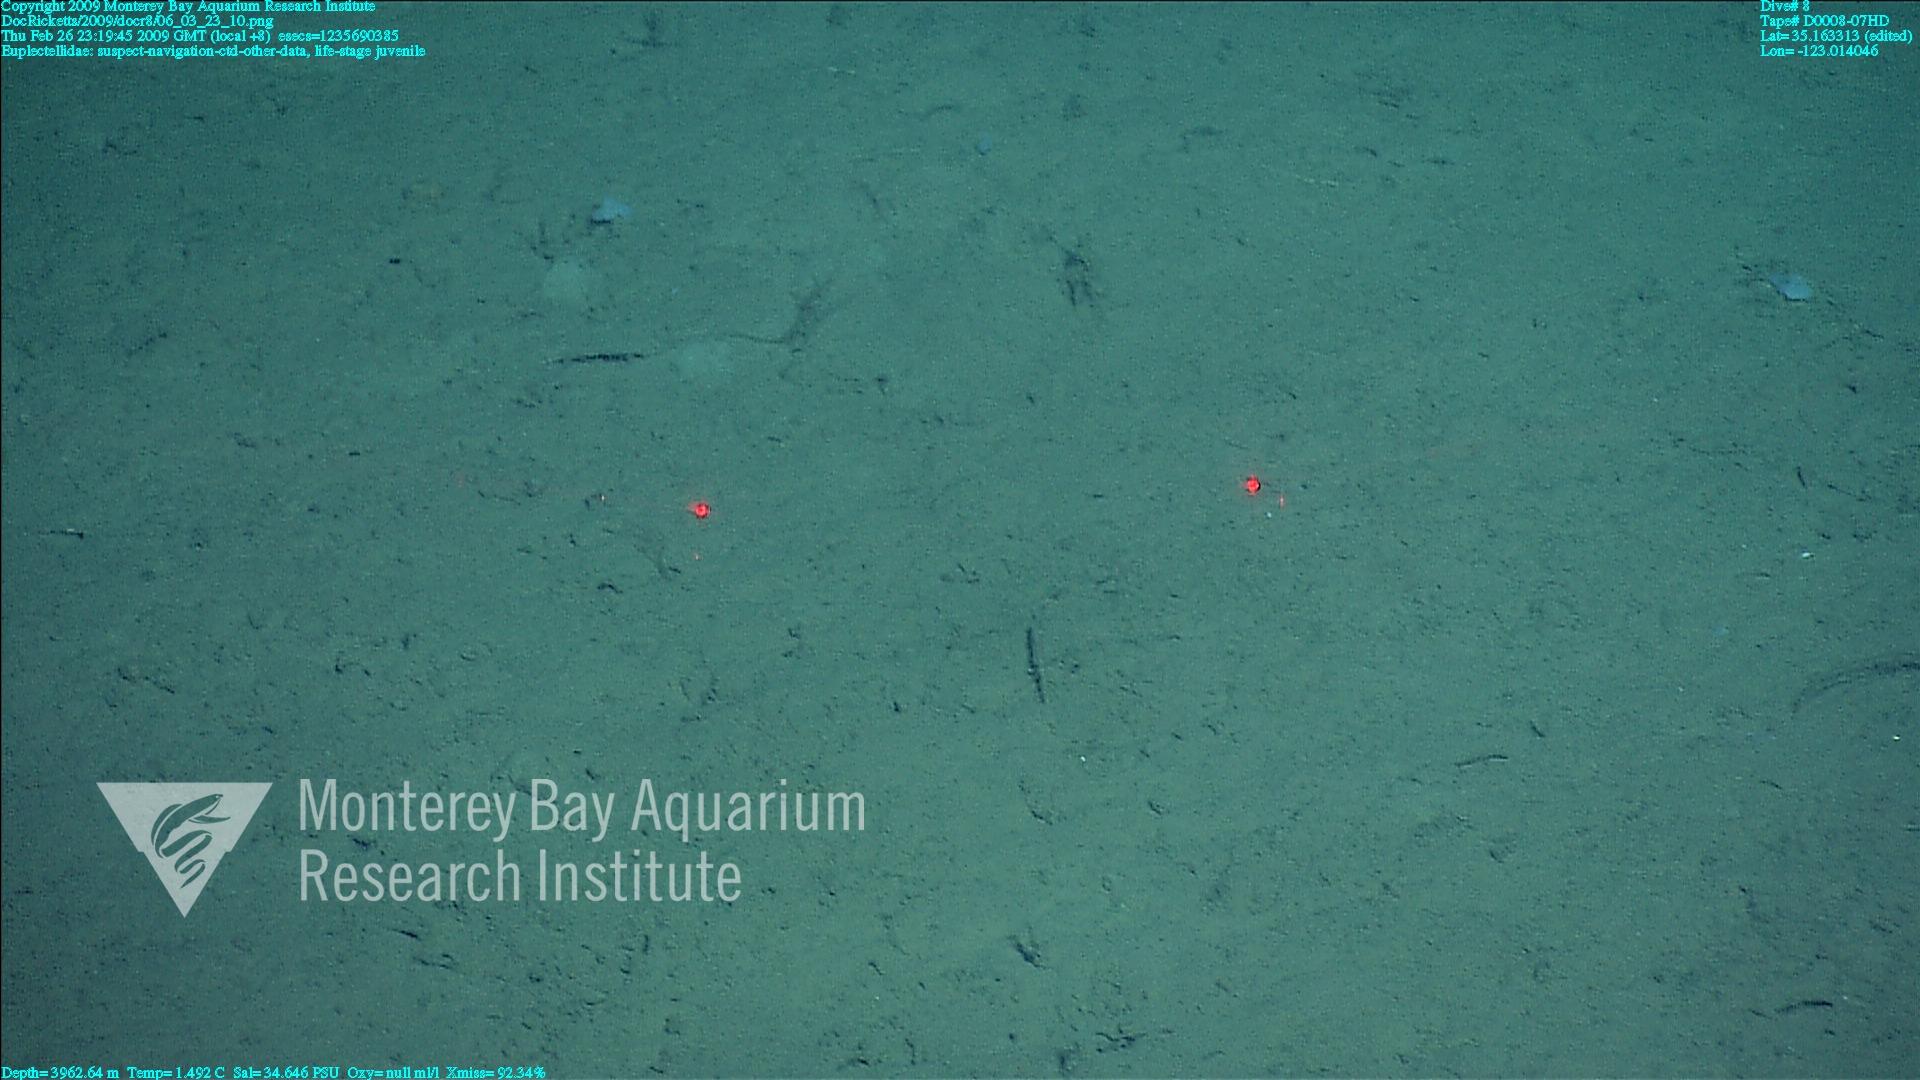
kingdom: Animalia
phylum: Porifera
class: Hexactinellida
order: Lyssacinosida
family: Euplectellidae
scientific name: Euplectellidae
